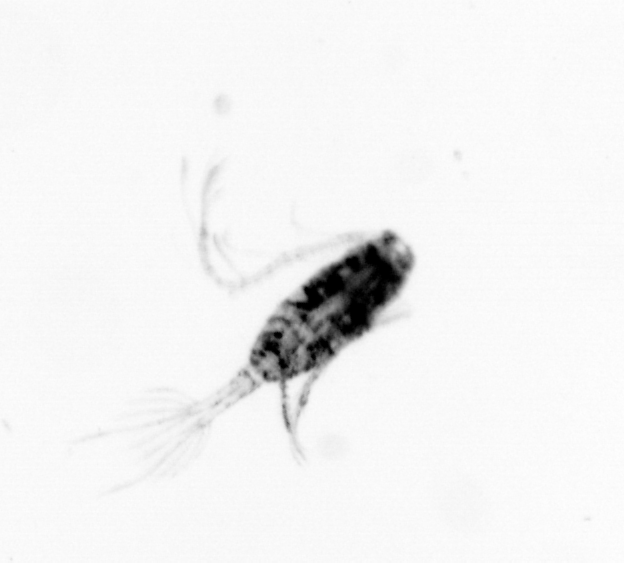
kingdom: Animalia
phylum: Arthropoda
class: Copepoda
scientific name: Copepoda
